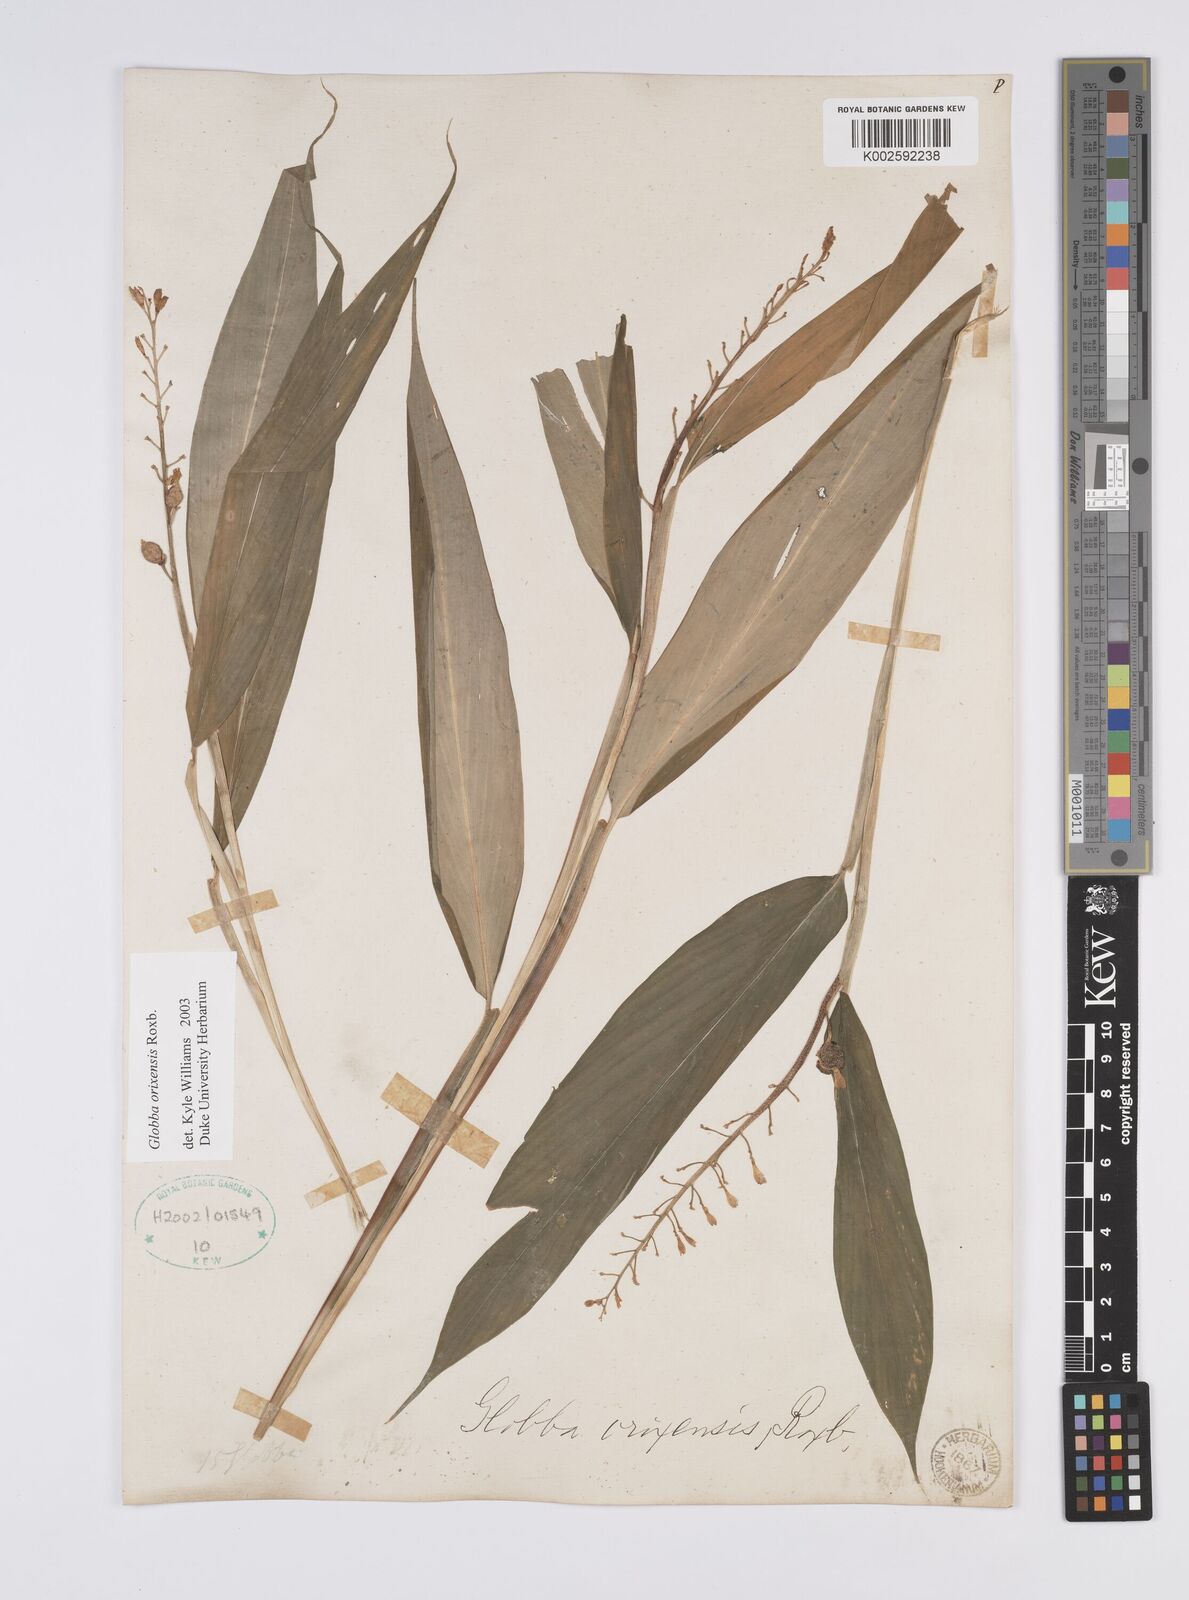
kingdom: Plantae
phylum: Tracheophyta
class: Liliopsida
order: Zingiberales
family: Zingiberaceae
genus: Globba
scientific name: Globba orixensis
